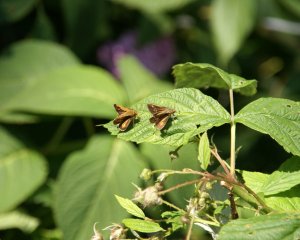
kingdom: Animalia
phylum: Arthropoda
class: Insecta
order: Lepidoptera
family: Hesperiidae
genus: Polites
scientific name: Polites coras
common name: Peck's Skipper
